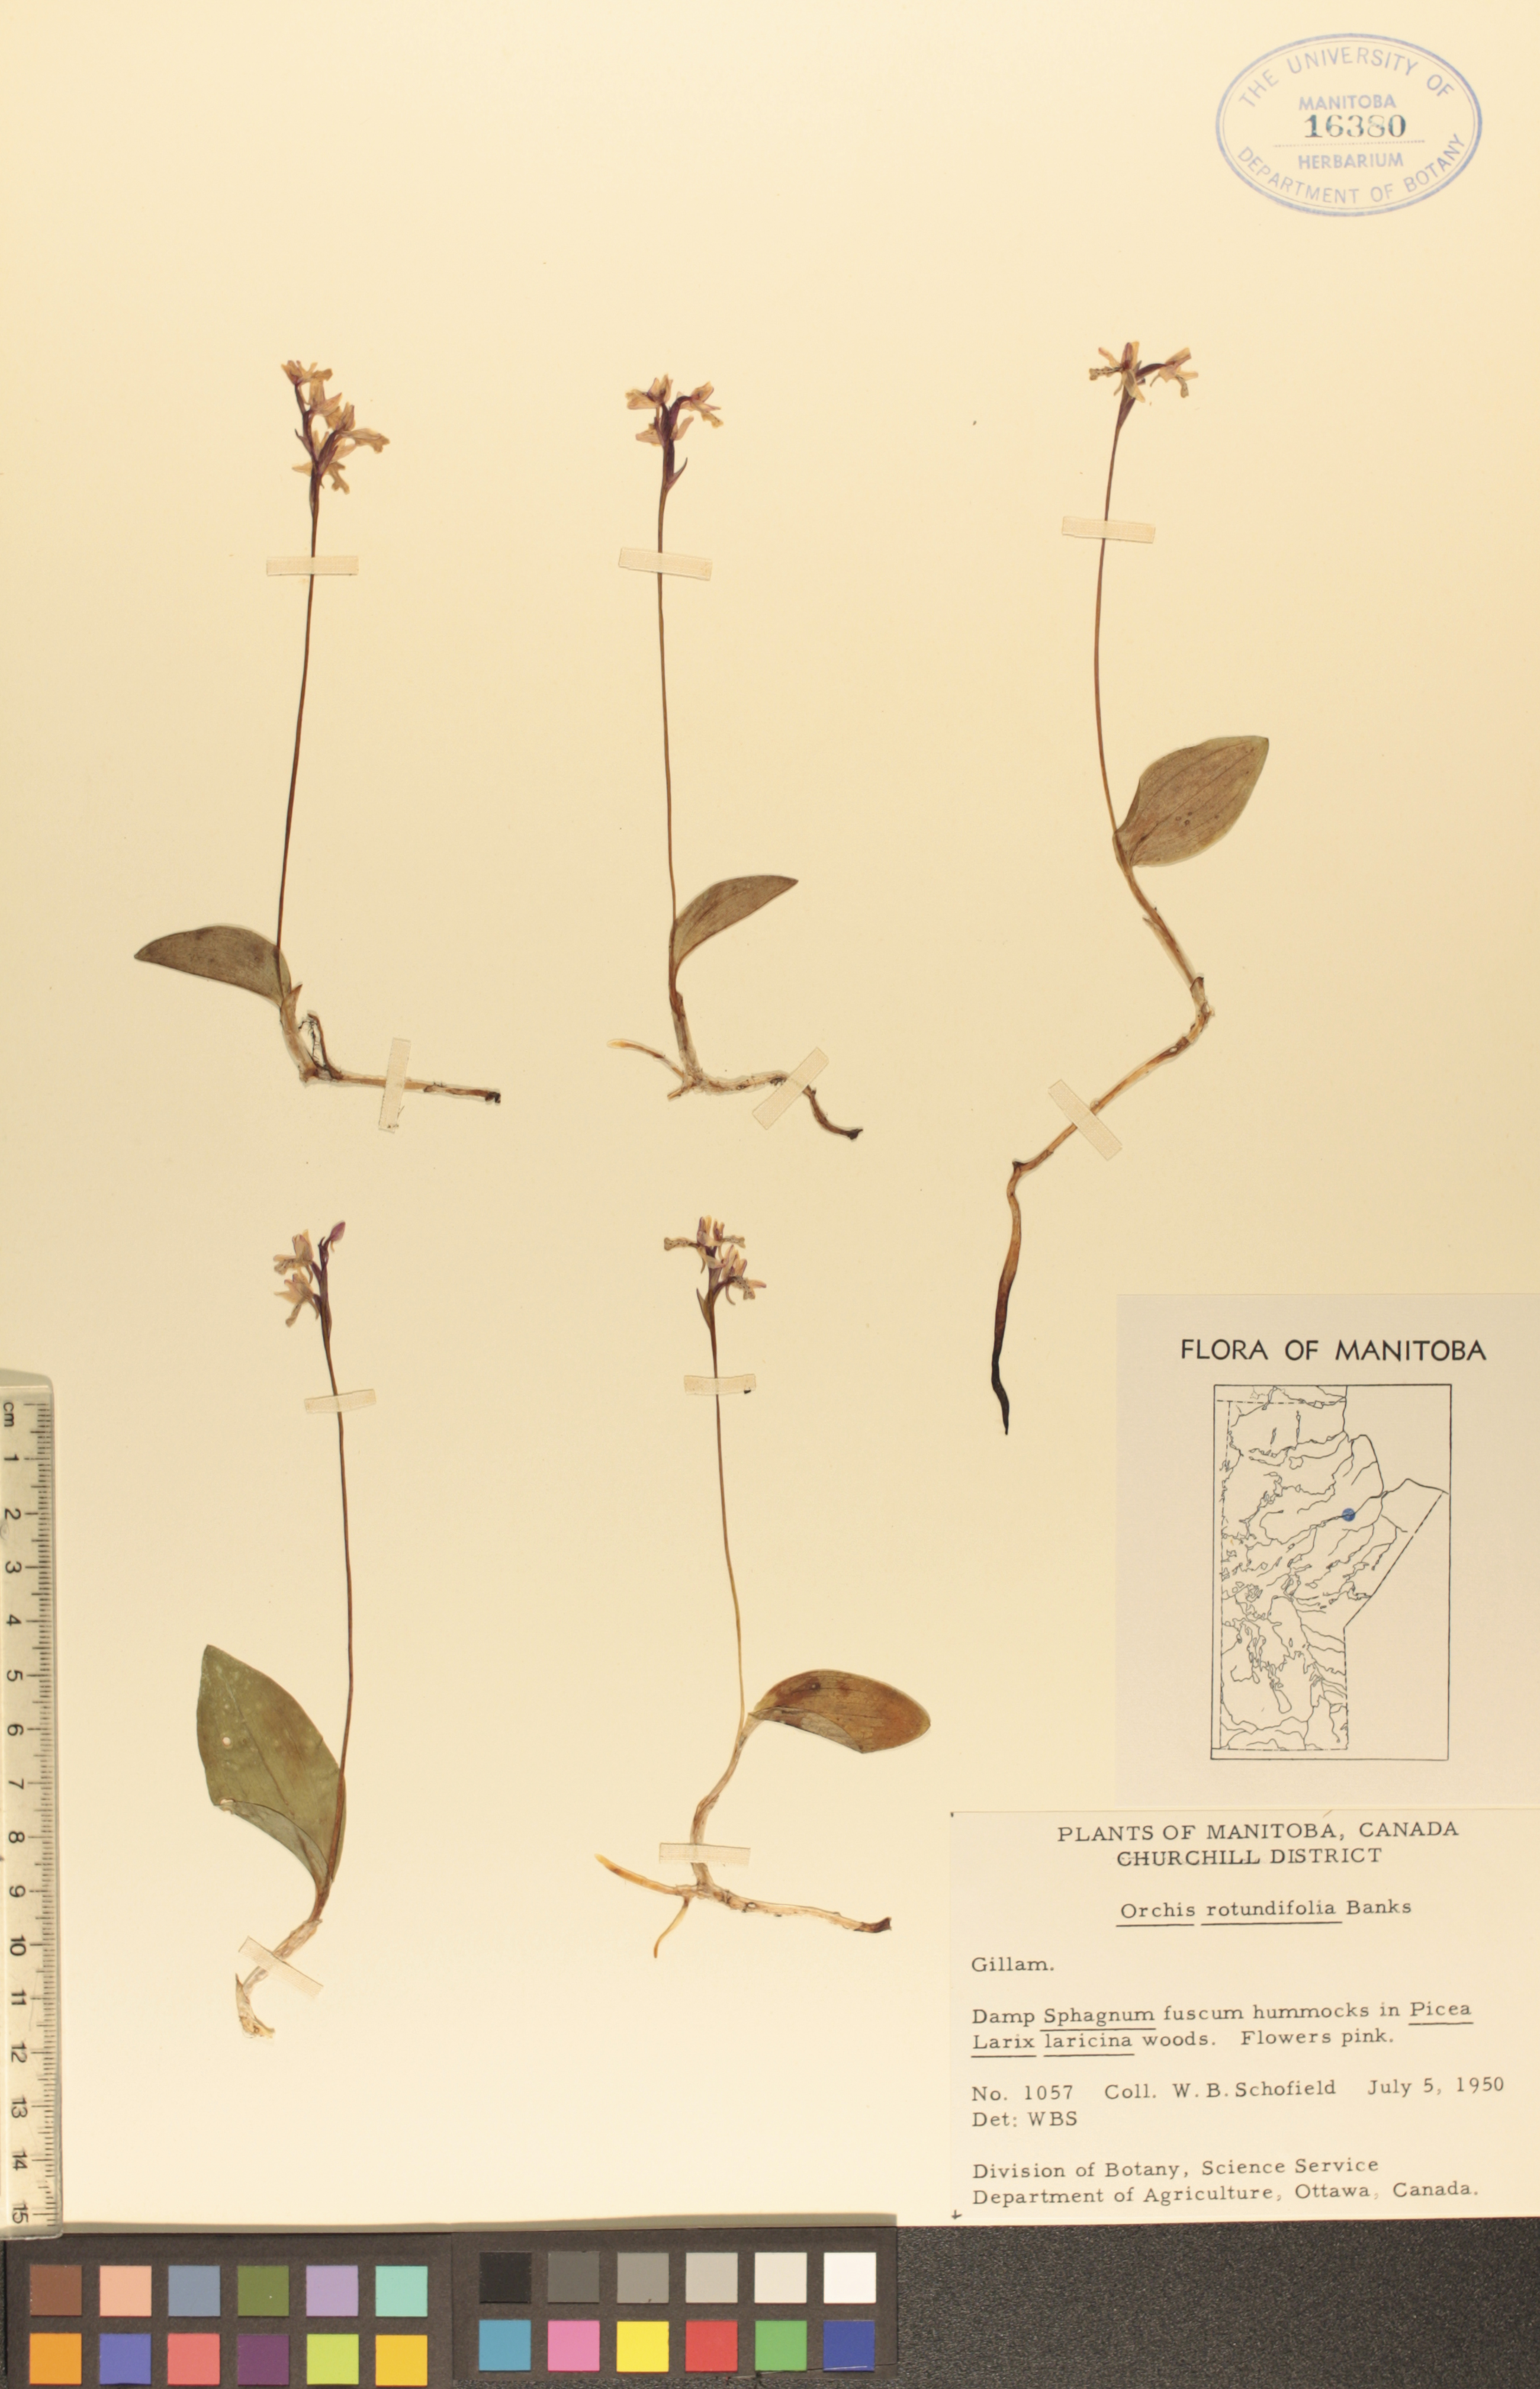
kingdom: Plantae
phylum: Tracheophyta
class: Liliopsida
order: Asparagales
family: Orchidaceae
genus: Galearis
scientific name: Galearis rotundifolia
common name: One-leaved orchis
